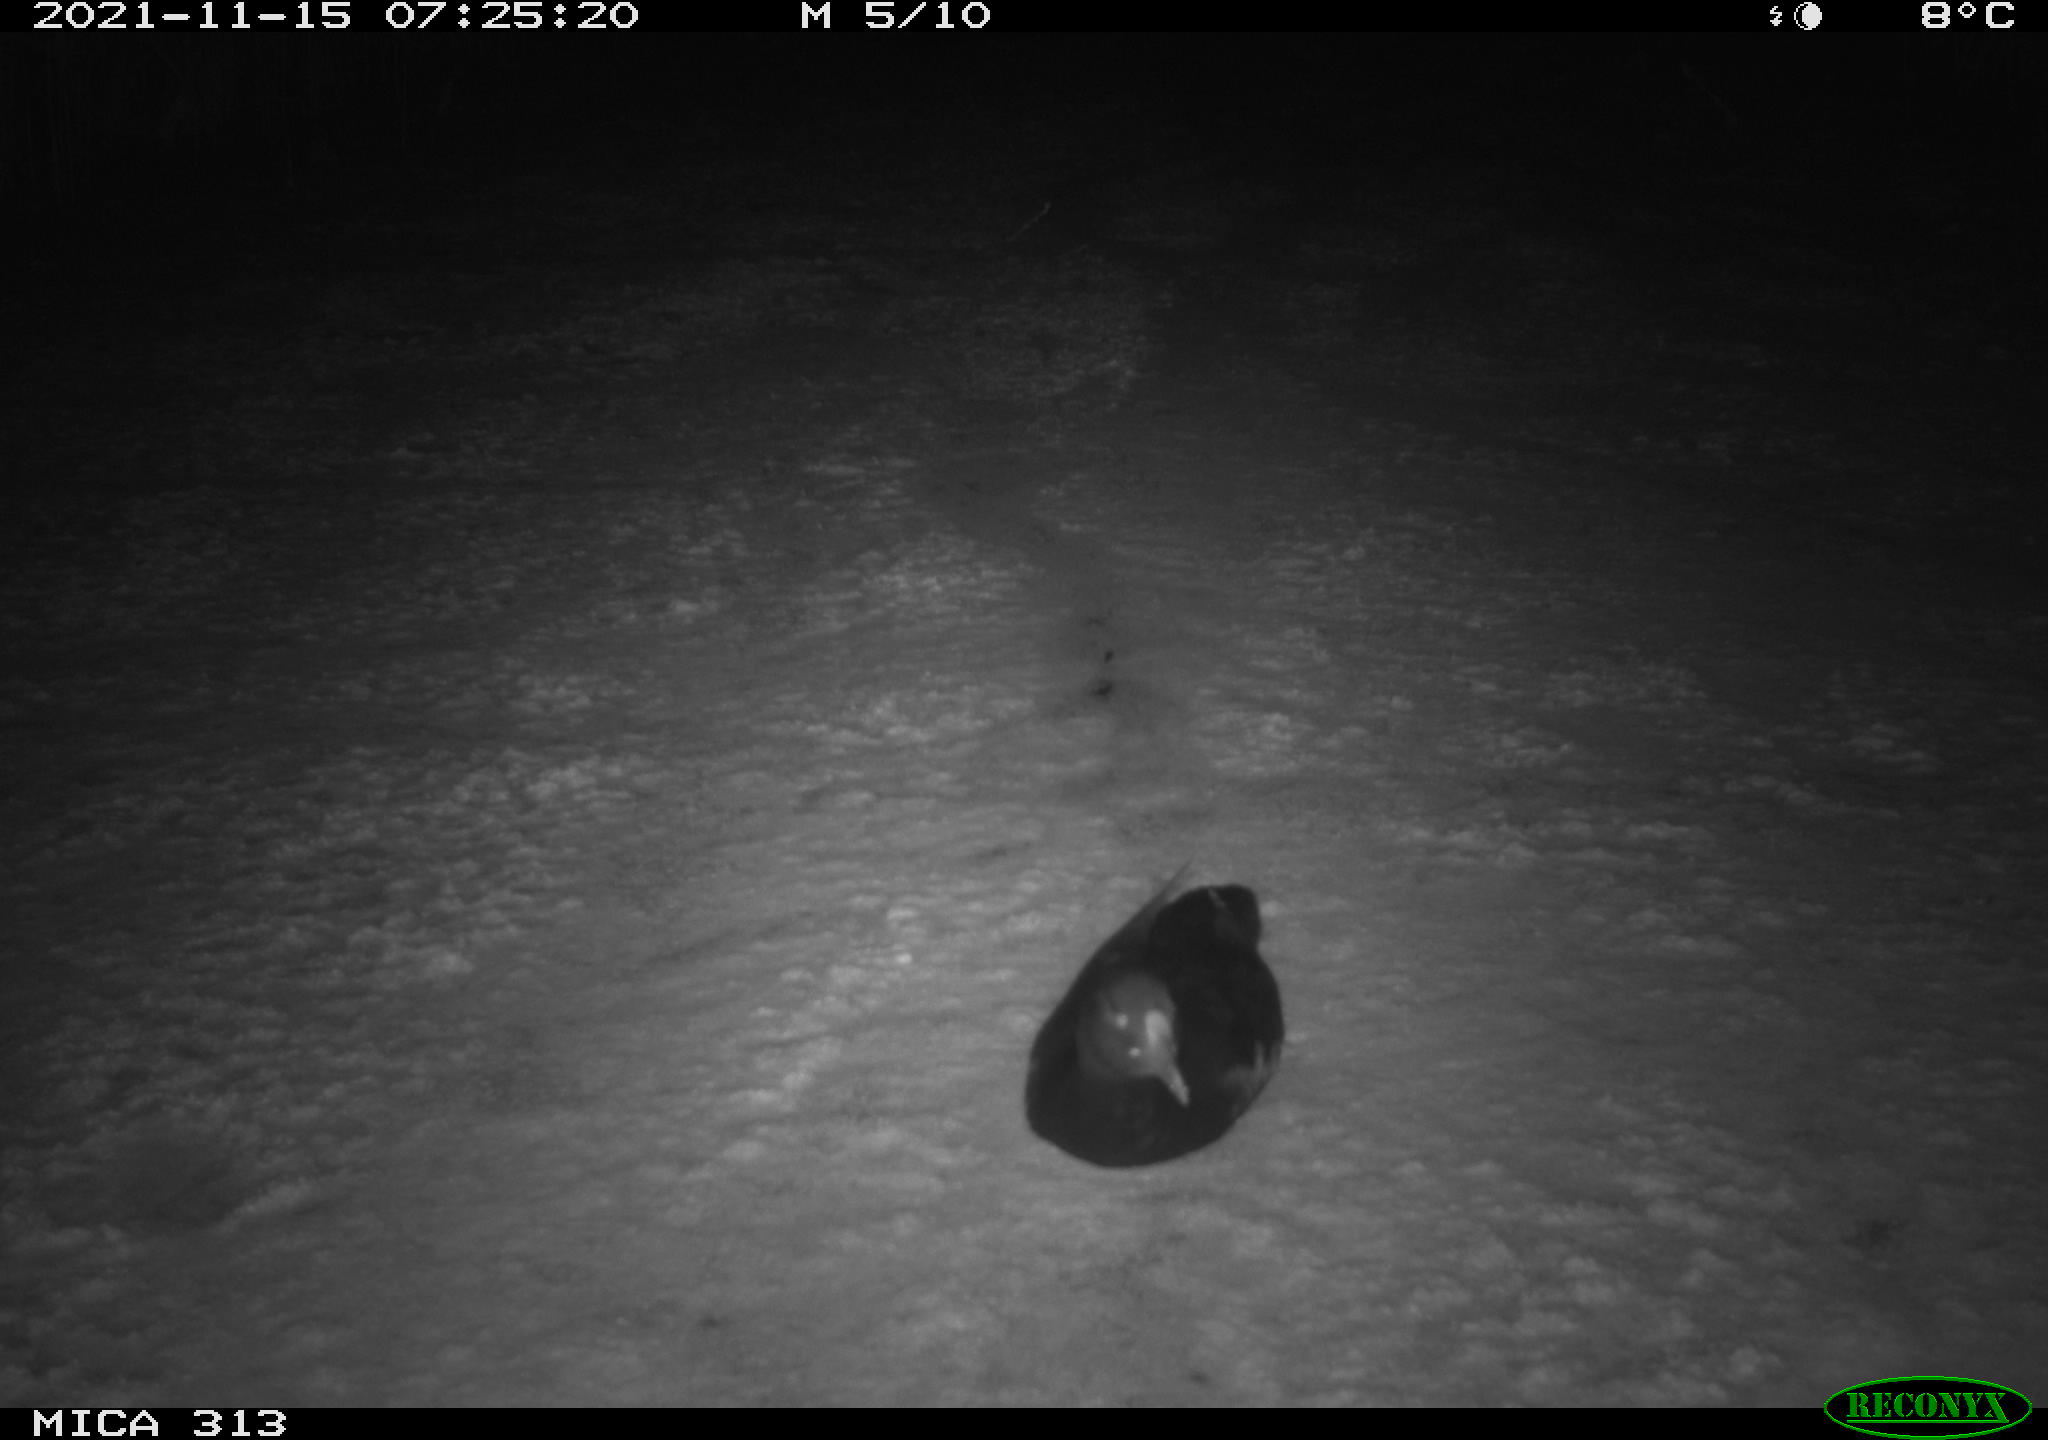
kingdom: Animalia
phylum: Chordata
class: Aves
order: Gruiformes
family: Rallidae
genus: Fulica
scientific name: Fulica atra
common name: Eurasian coot
